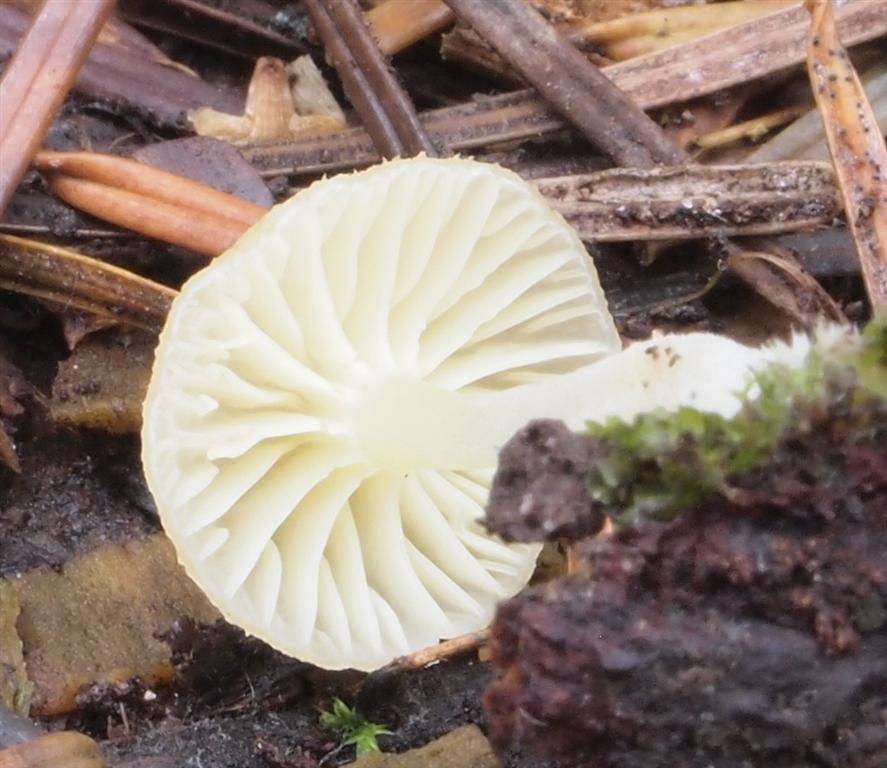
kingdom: Fungi
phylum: Basidiomycota
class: Agaricomycetes
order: Agaricales
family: Hygrophoraceae
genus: Chrysomphalina
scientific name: Chrysomphalina grossula
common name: stød-gyldenblad
